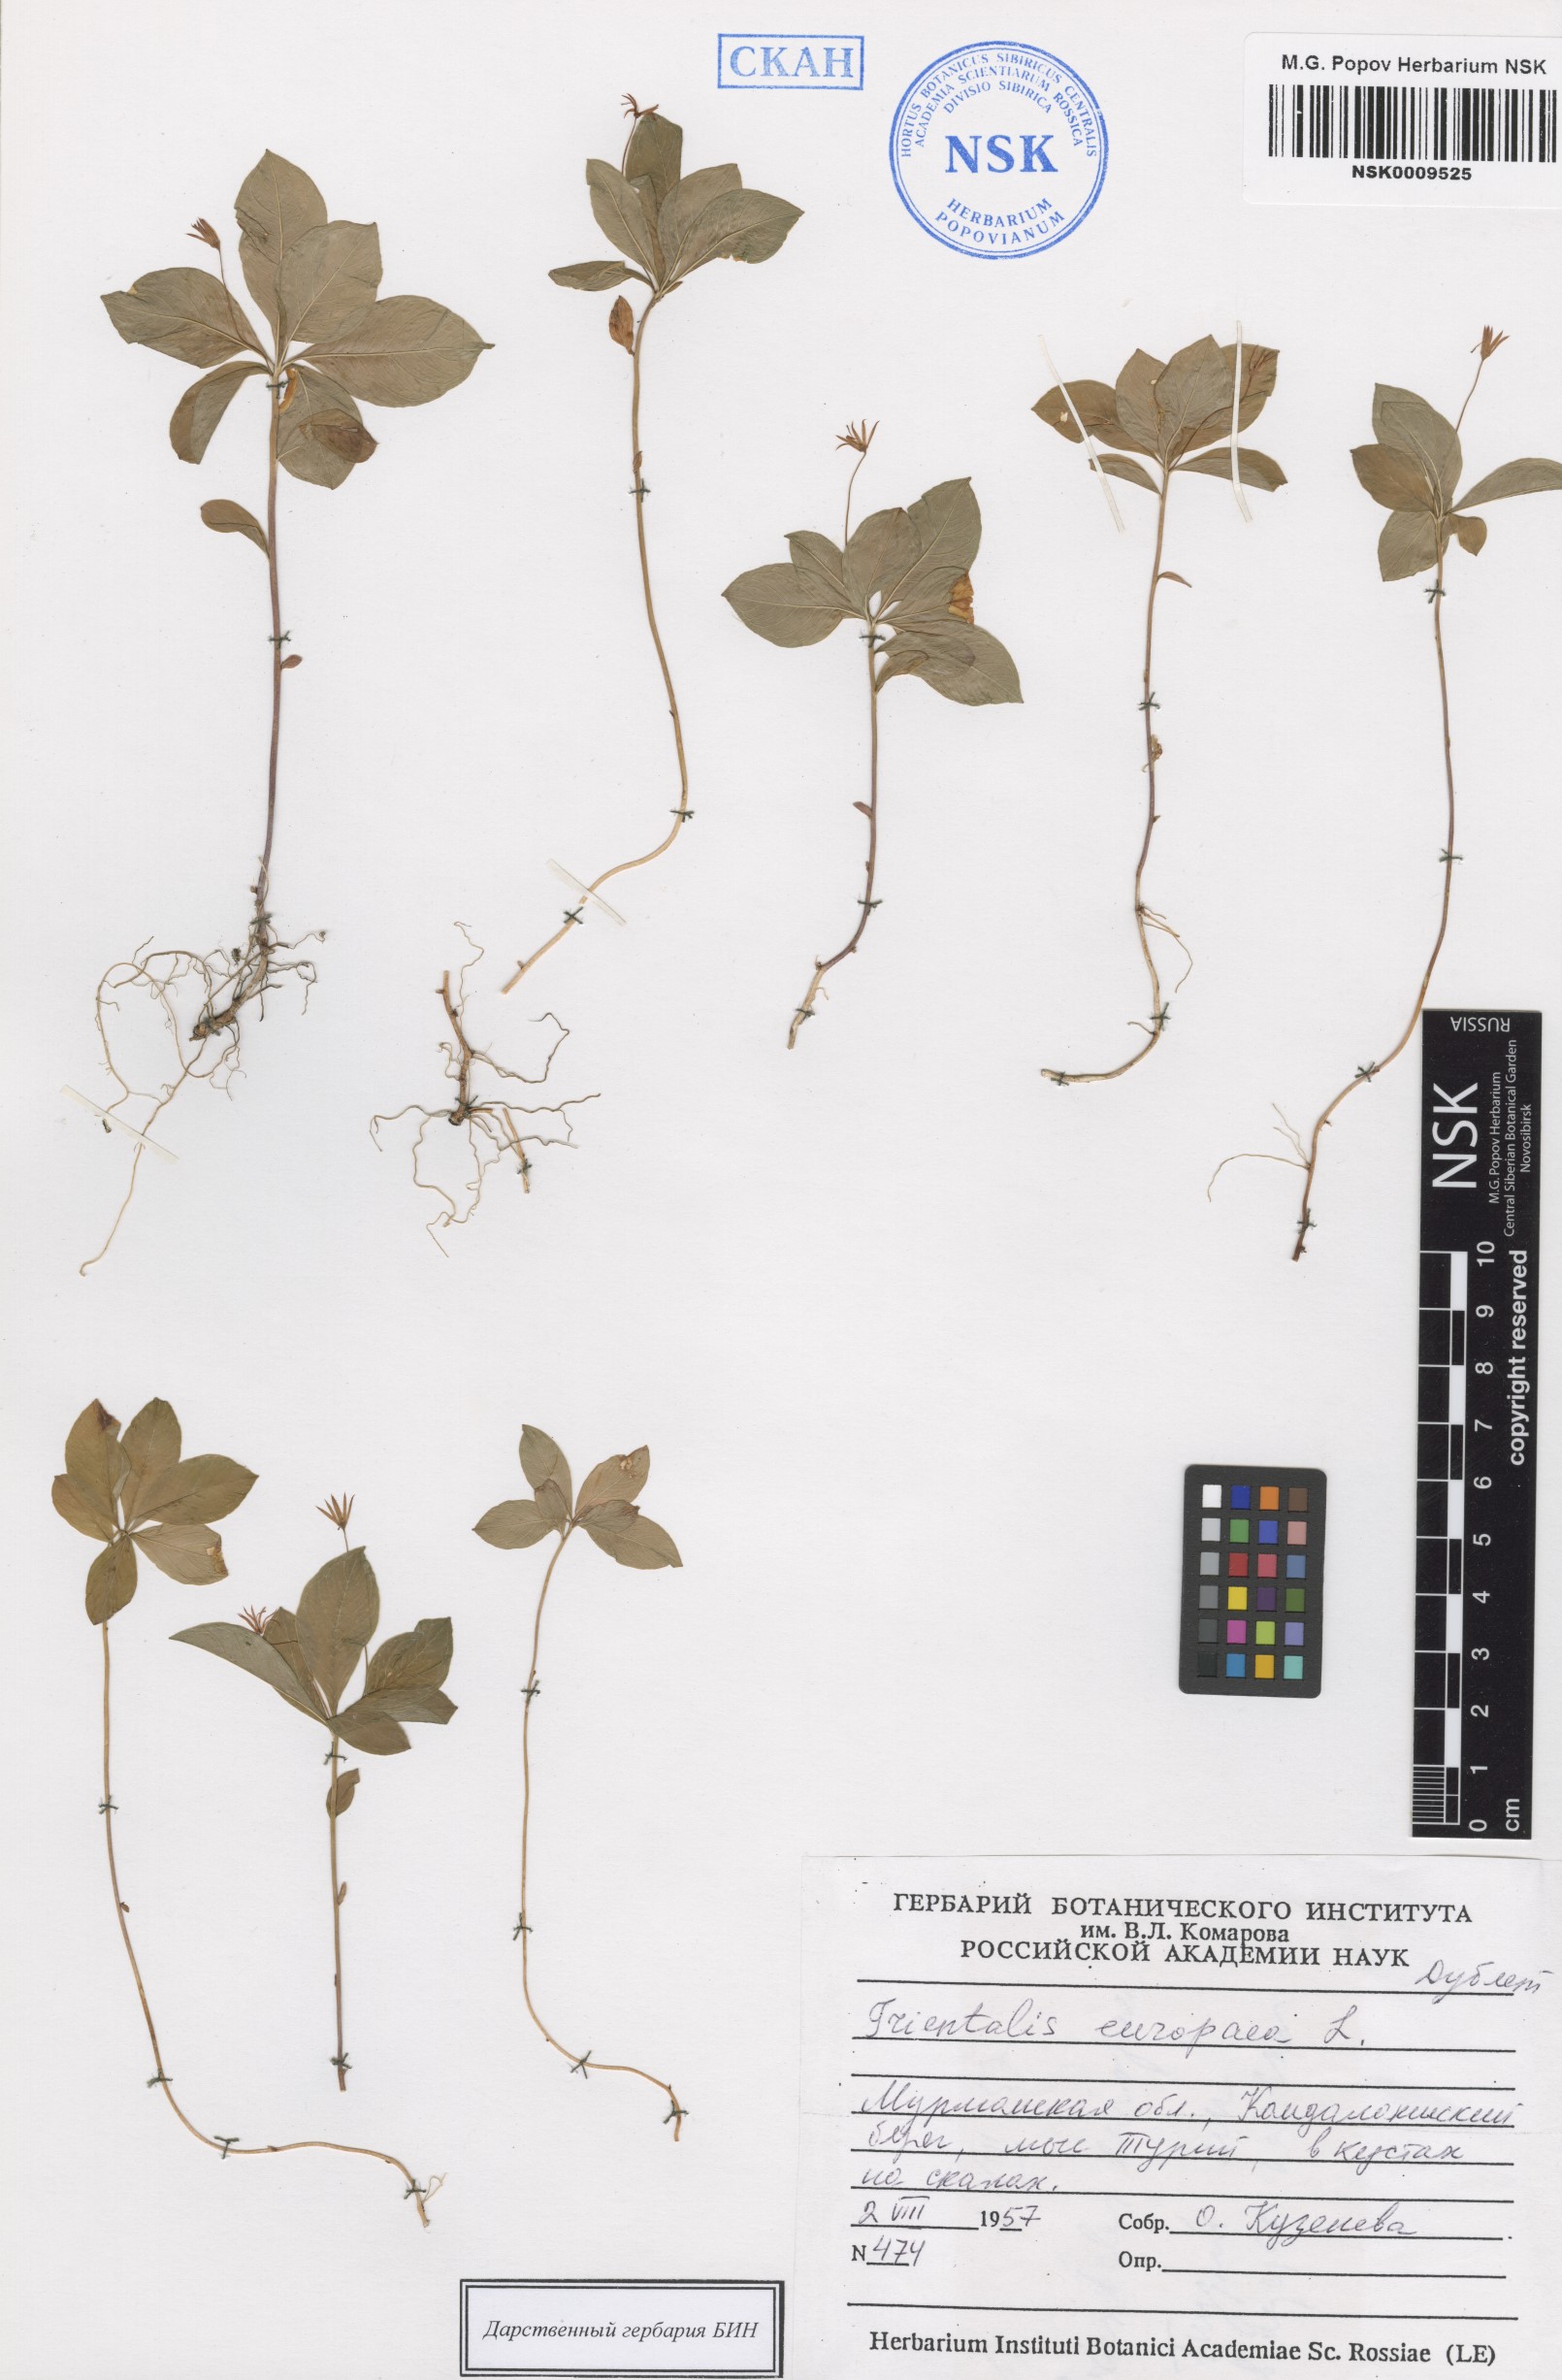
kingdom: Plantae
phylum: Tracheophyta
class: Magnoliopsida
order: Ericales
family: Primulaceae
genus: Lysimachia
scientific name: Lysimachia europaea
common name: Arctic starflower
